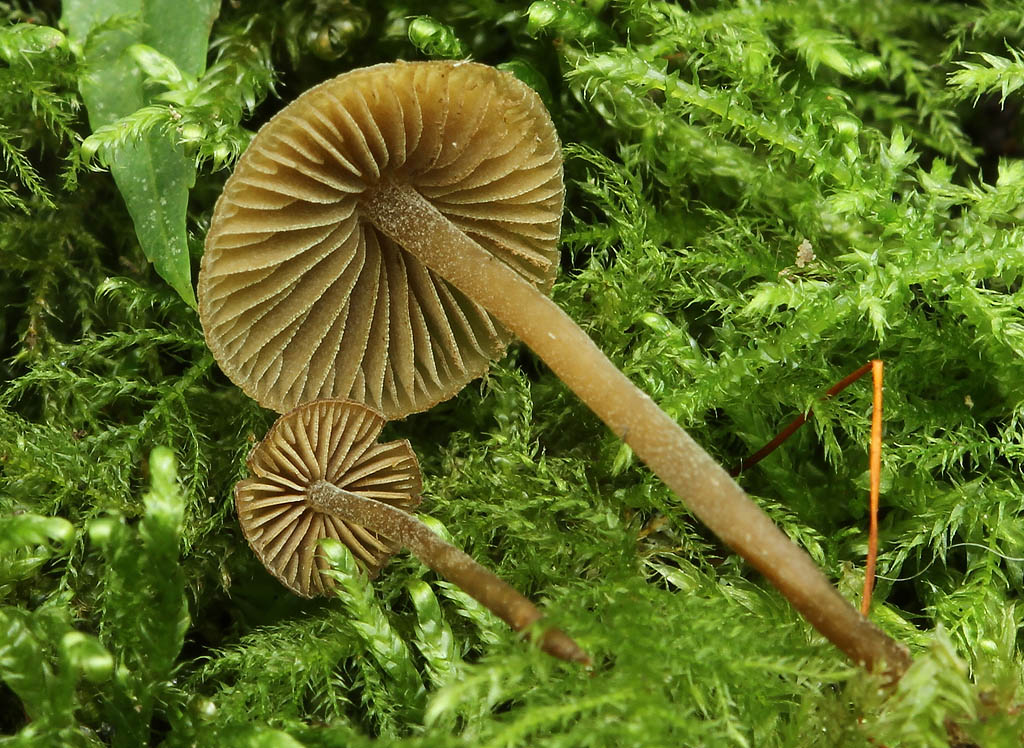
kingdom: Fungi
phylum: Basidiomycota
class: Agaricomycetes
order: Agaricales
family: Crepidotaceae
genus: Simocybe
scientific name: Simocybe centunculus
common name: enlig skyggehat
